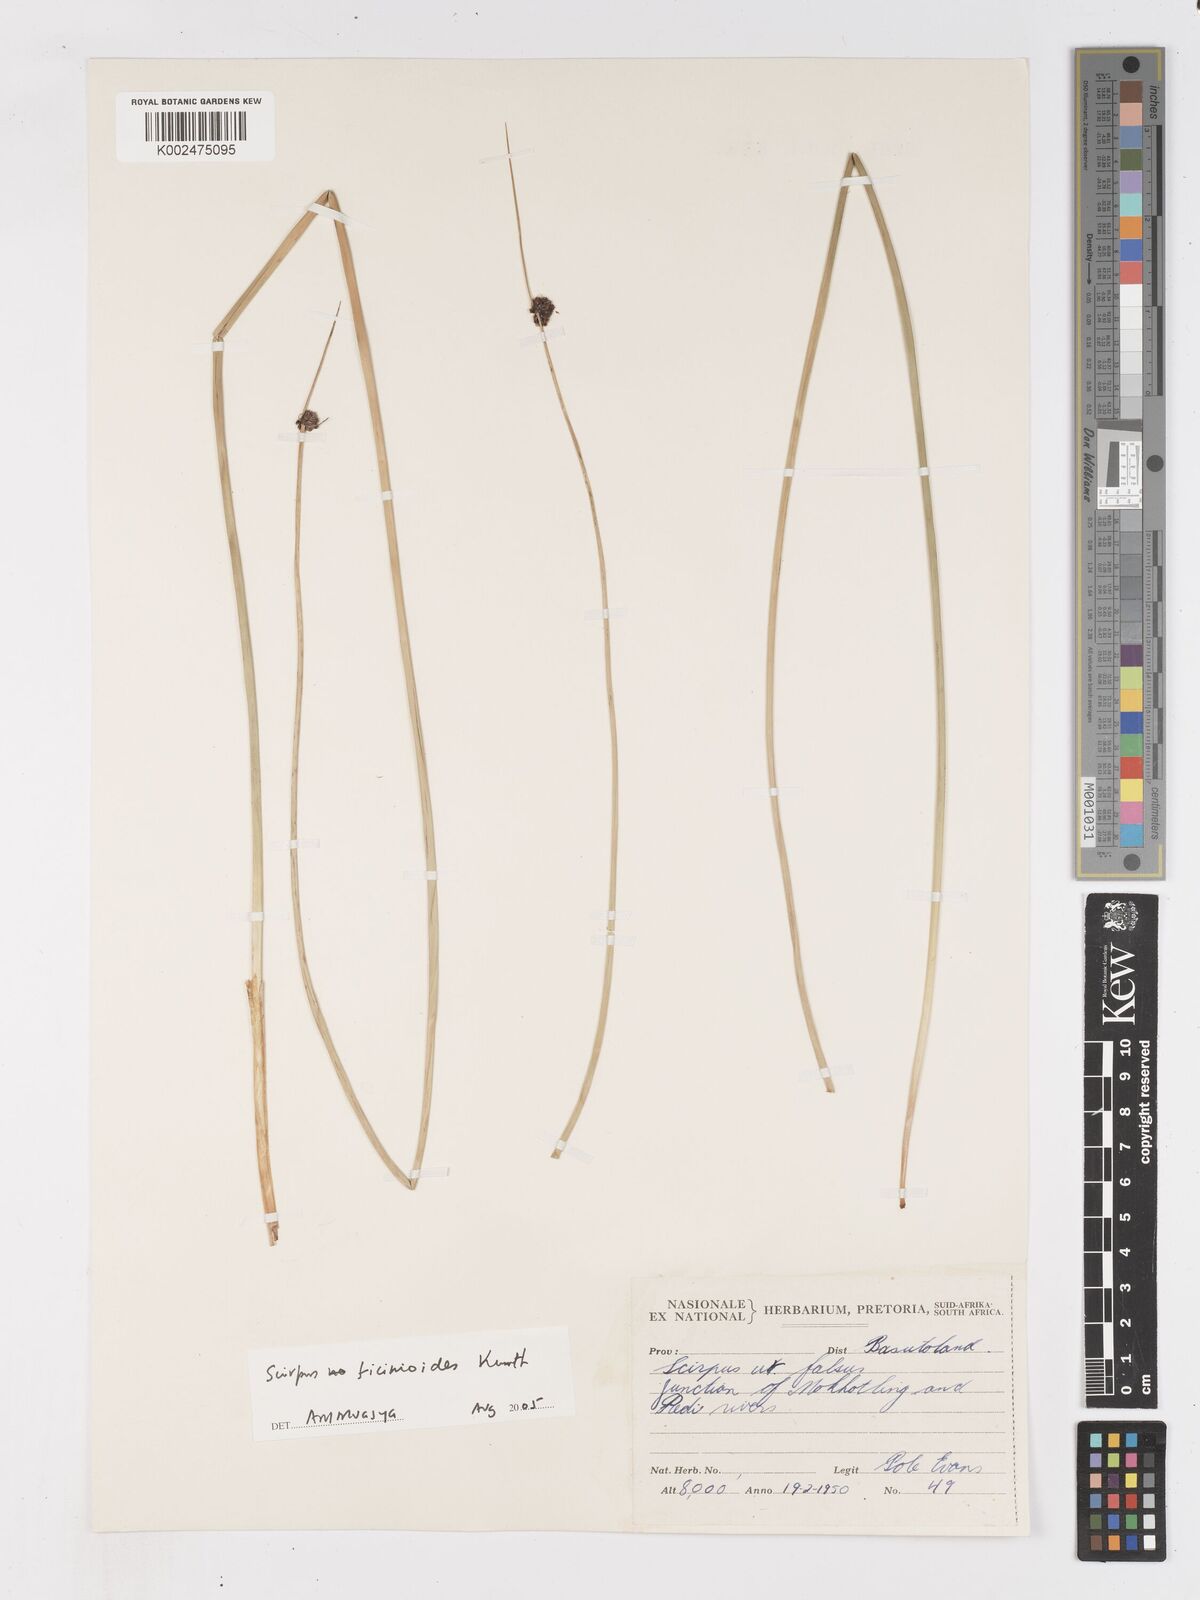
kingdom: Plantae
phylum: Tracheophyta
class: Liliopsida
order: Poales
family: Cyperaceae
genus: Ficinia
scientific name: Ficinia
